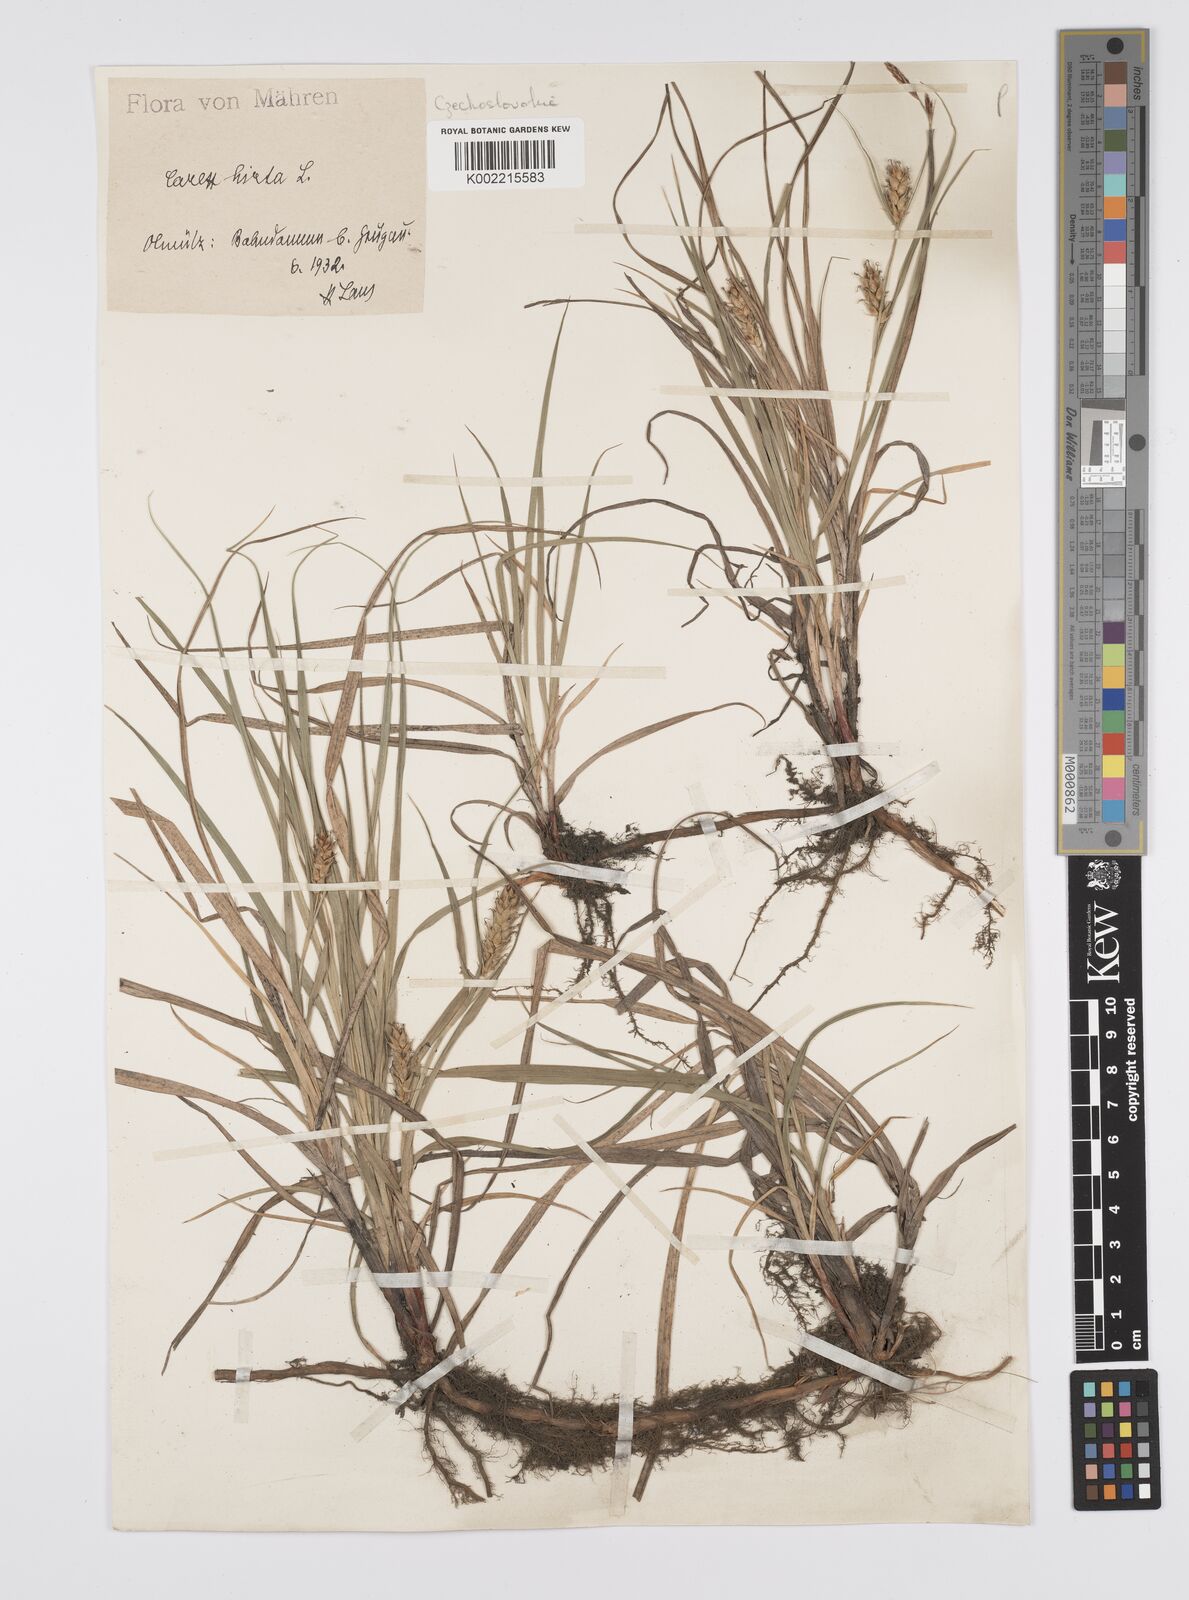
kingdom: Plantae
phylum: Tracheophyta
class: Liliopsida
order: Poales
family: Cyperaceae
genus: Carex
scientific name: Carex hirta
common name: Hairy sedge
